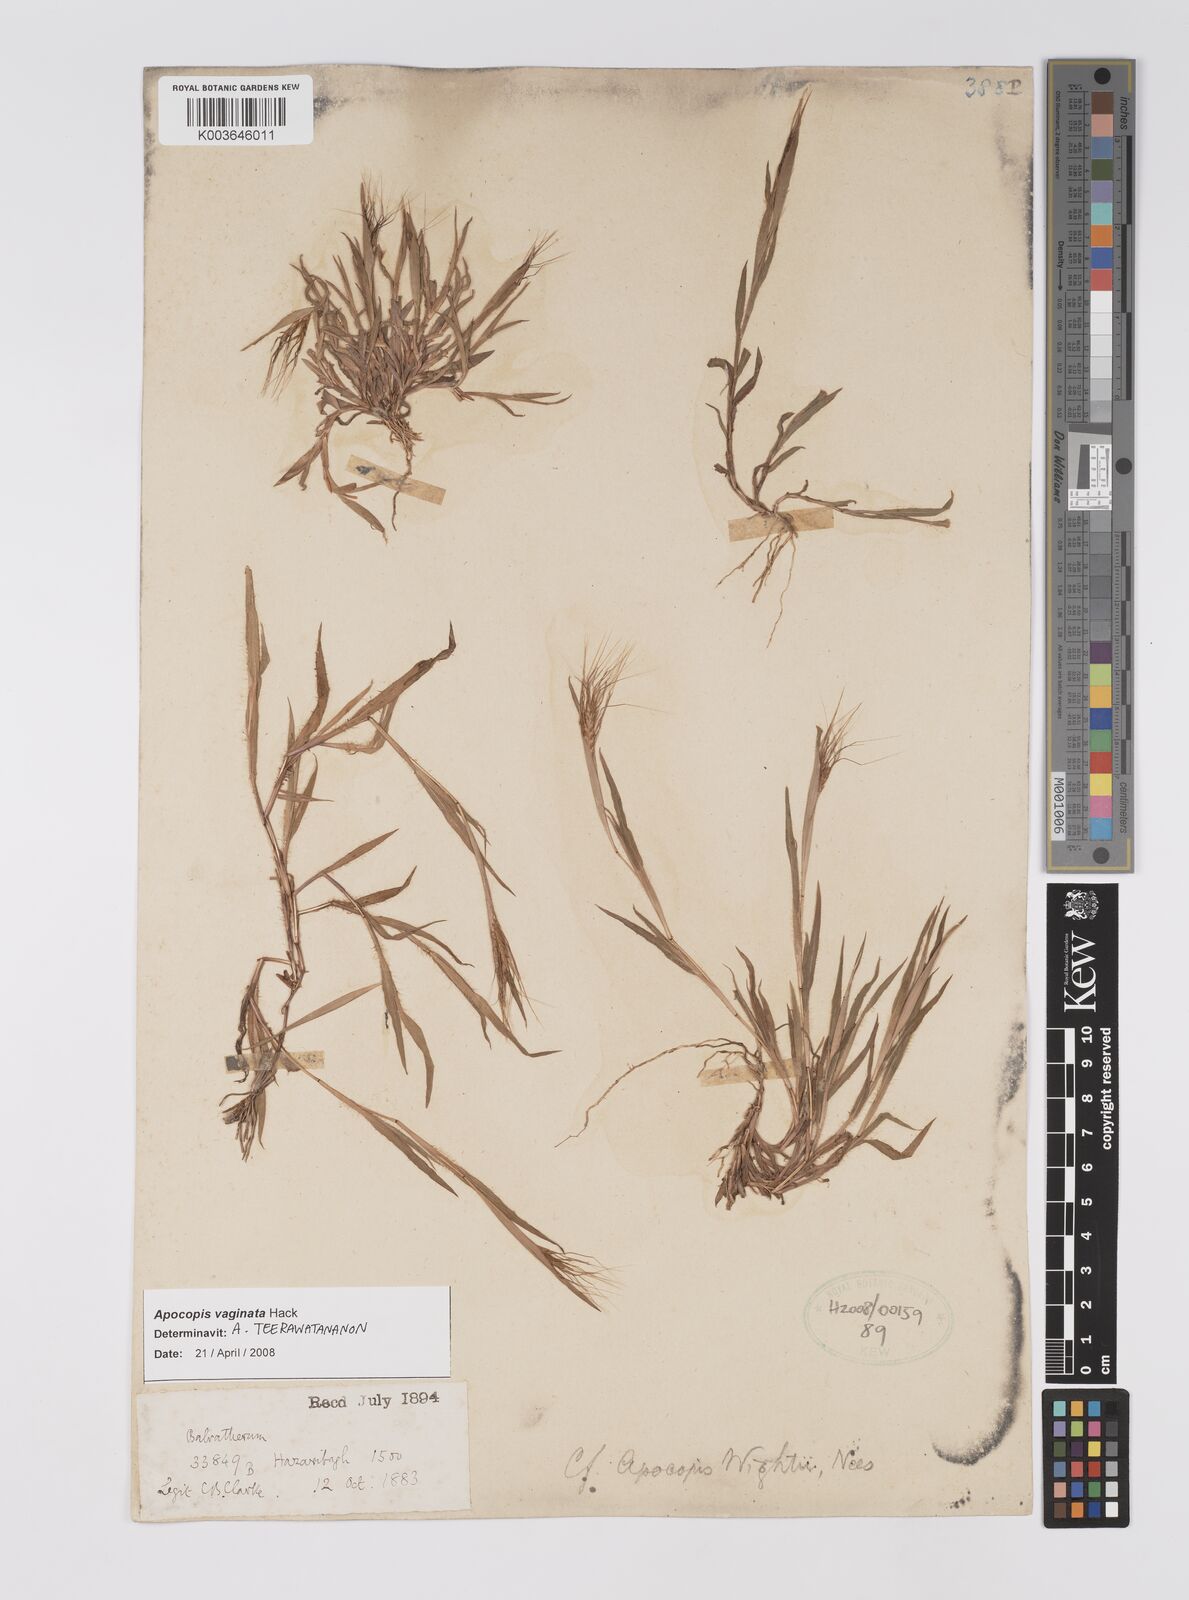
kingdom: Plantae
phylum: Tracheophyta
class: Liliopsida
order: Poales
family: Poaceae
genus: Apocopis
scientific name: Apocopis vaginatus
